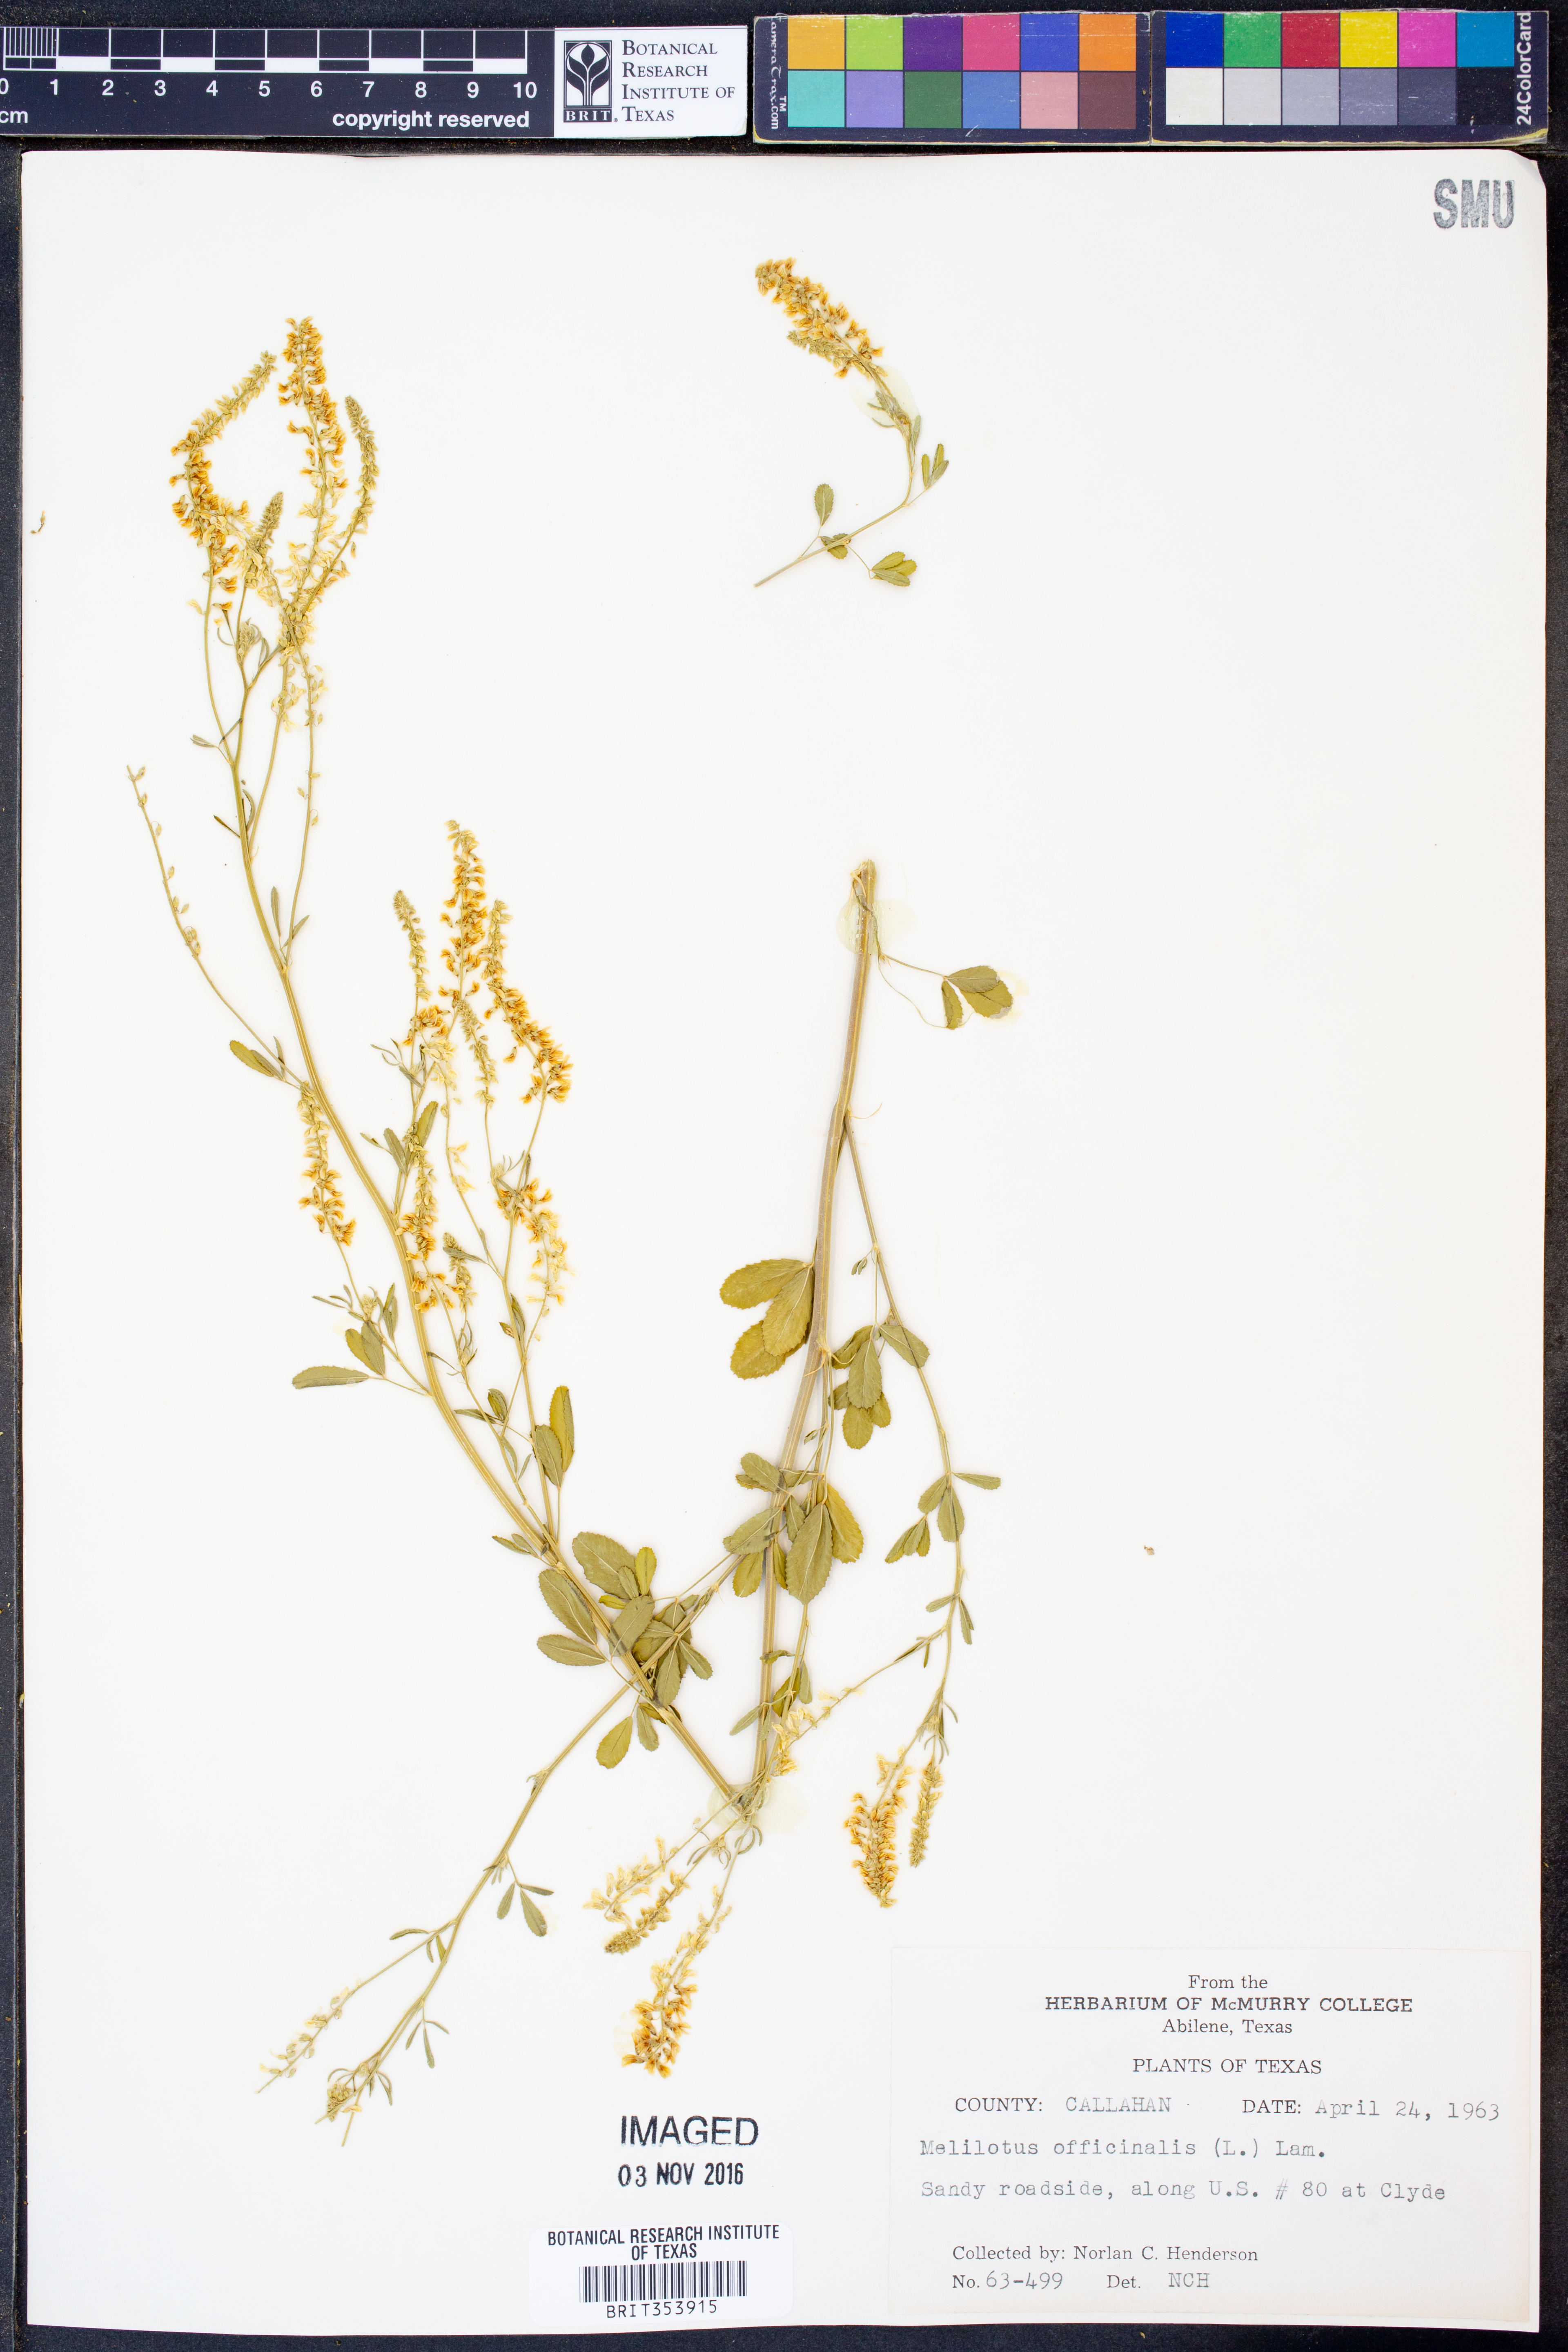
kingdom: Plantae
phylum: Tracheophyta
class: Magnoliopsida
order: Fabales
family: Fabaceae
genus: Melilotus
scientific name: Melilotus officinalis
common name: Sweetclover
